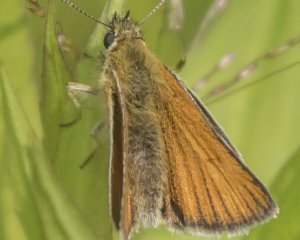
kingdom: Animalia
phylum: Arthropoda
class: Insecta
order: Lepidoptera
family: Hesperiidae
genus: Thymelicus
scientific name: Thymelicus lineola
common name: European Skipper
